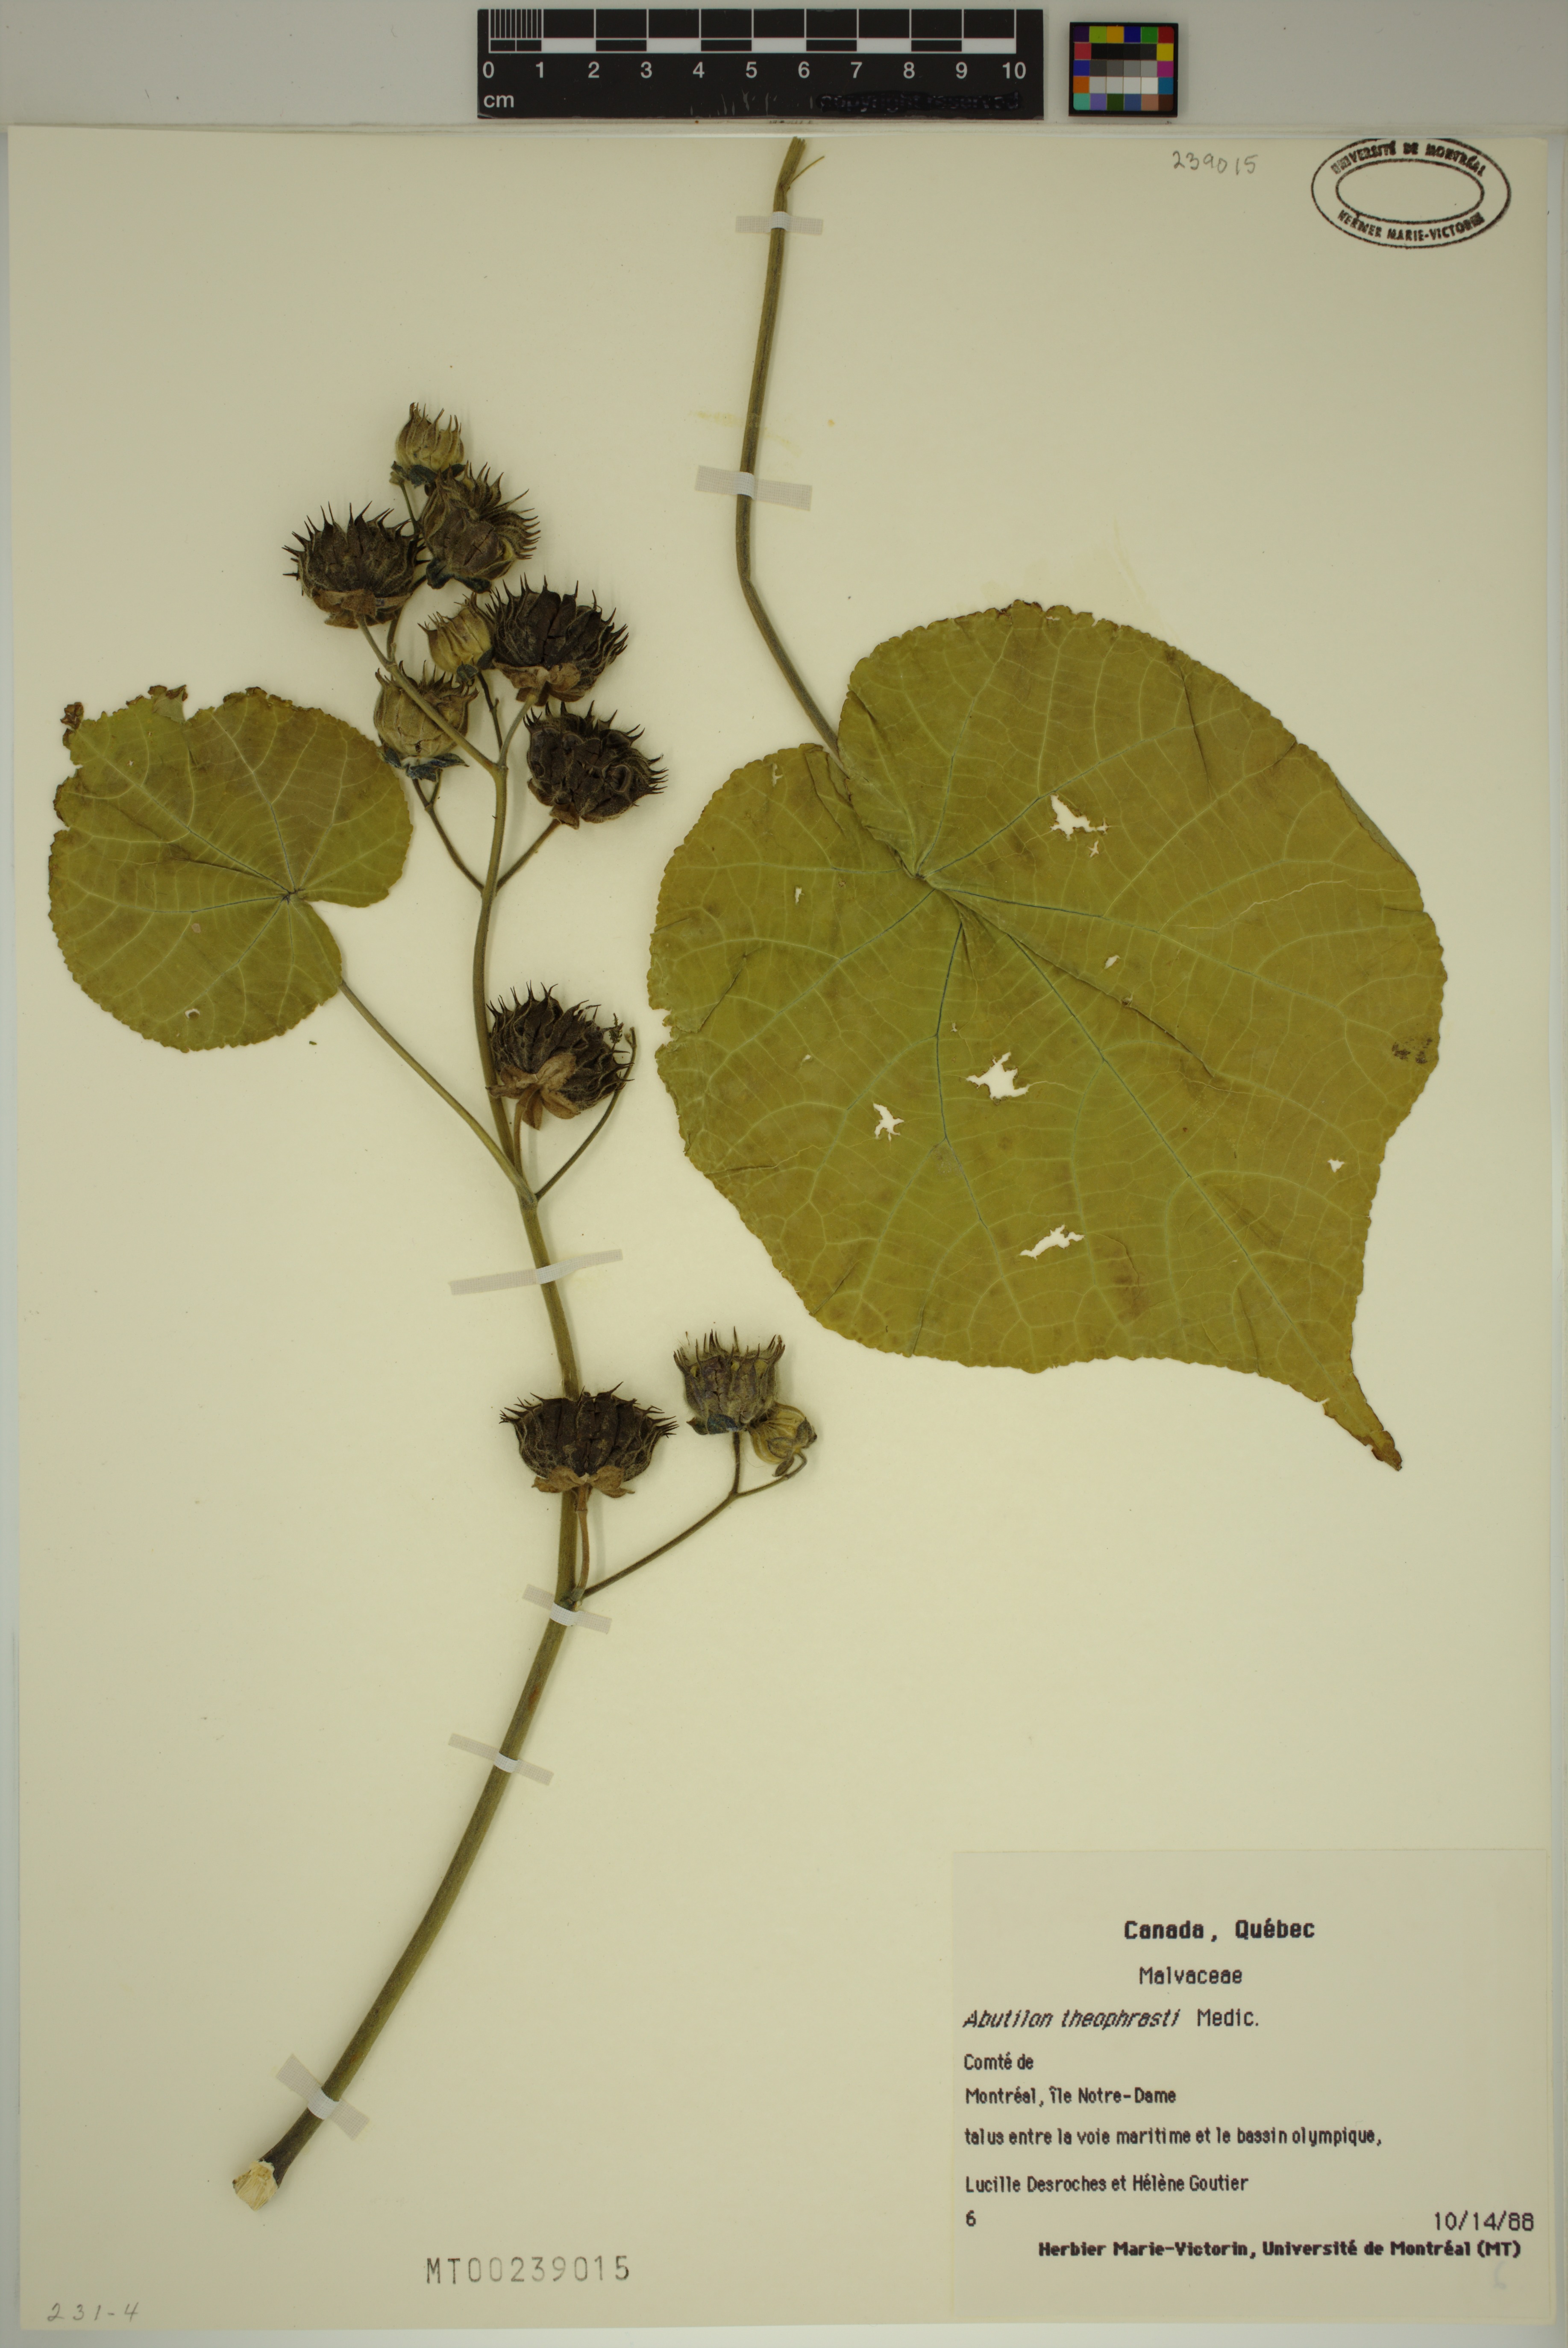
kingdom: Plantae
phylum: Tracheophyta
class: Magnoliopsida
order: Malvales
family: Malvaceae
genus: Abutilon
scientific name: Abutilon theophrasti
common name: Velvetleaf
